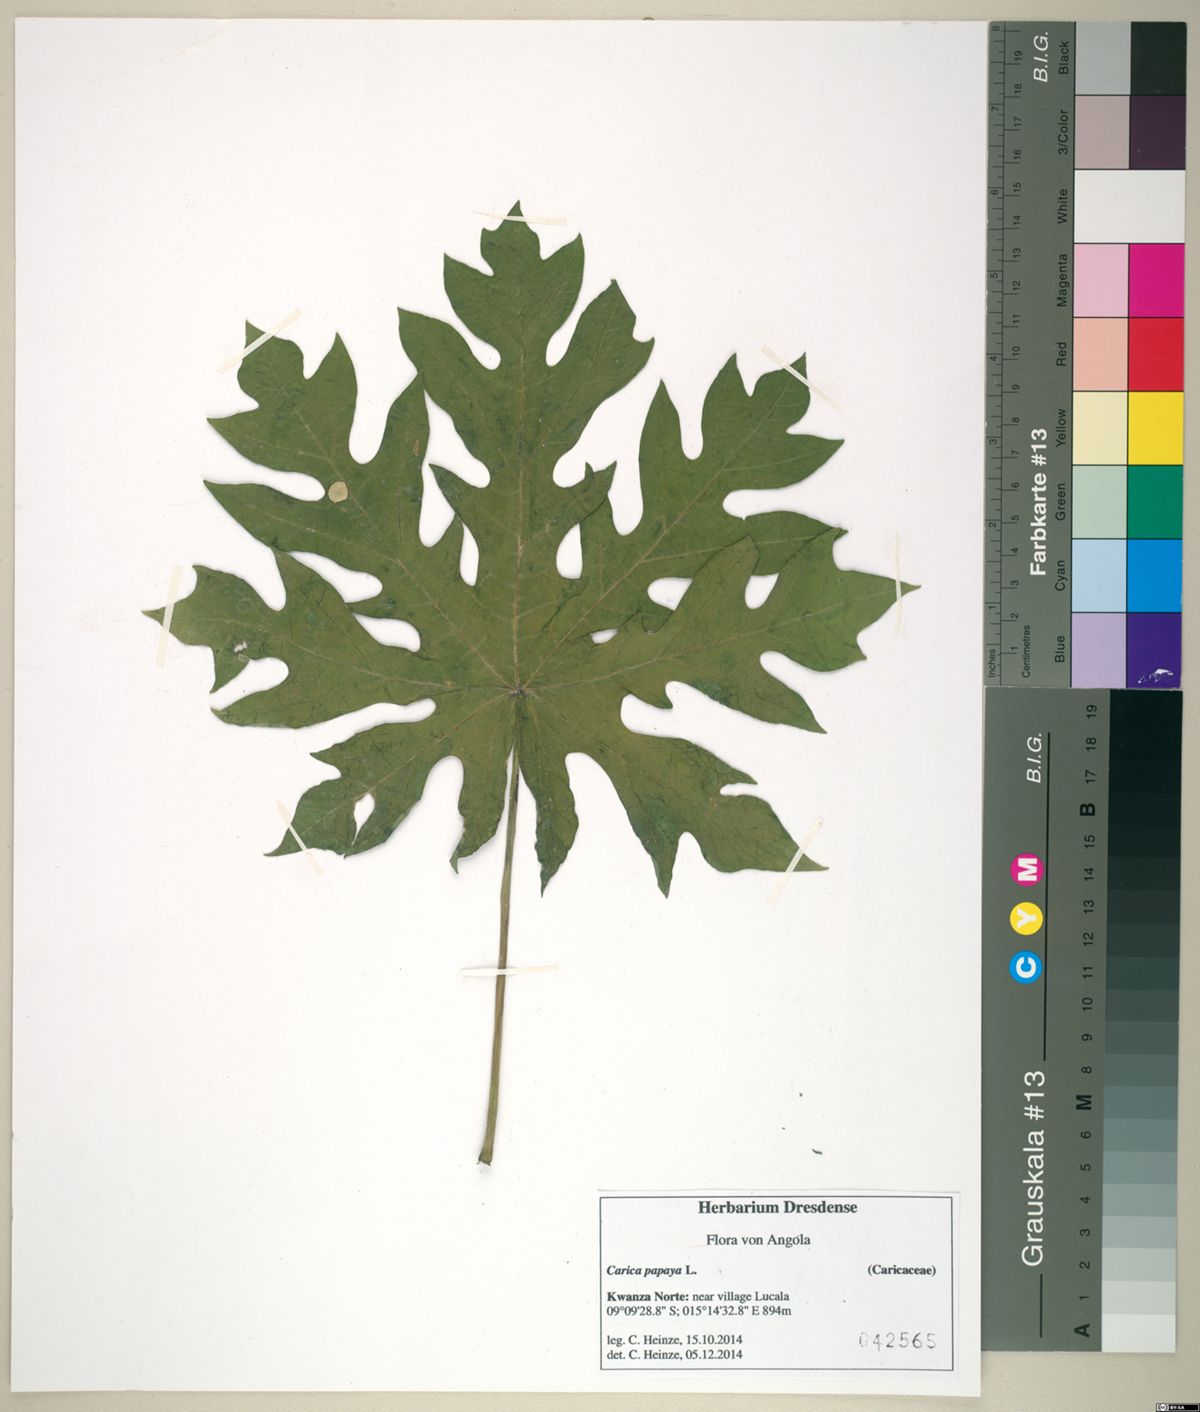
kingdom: Plantae
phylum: Tracheophyta
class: Magnoliopsida
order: Brassicales
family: Caricaceae
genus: Carica
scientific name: Carica papaya
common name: Papaya
